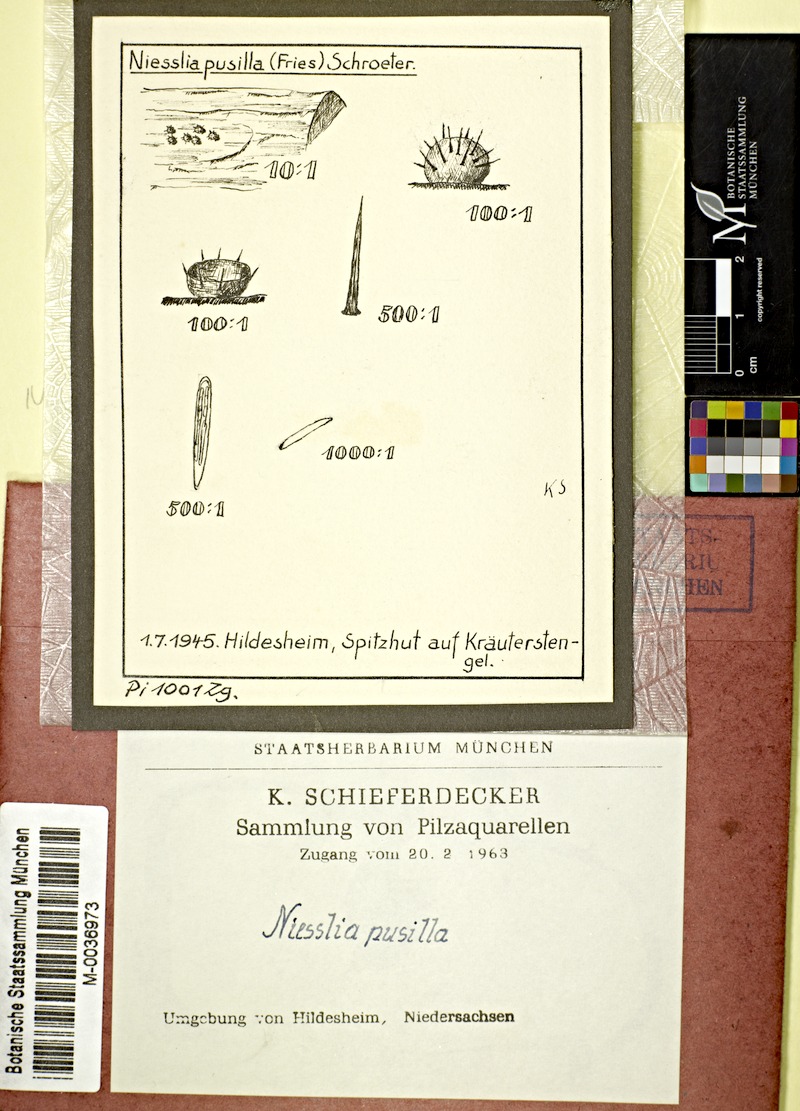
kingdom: Fungi
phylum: Ascomycota
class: Sordariomycetes
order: Hypocreales
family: Niessliaceae
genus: Niesslia
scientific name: Niesslia exilis
